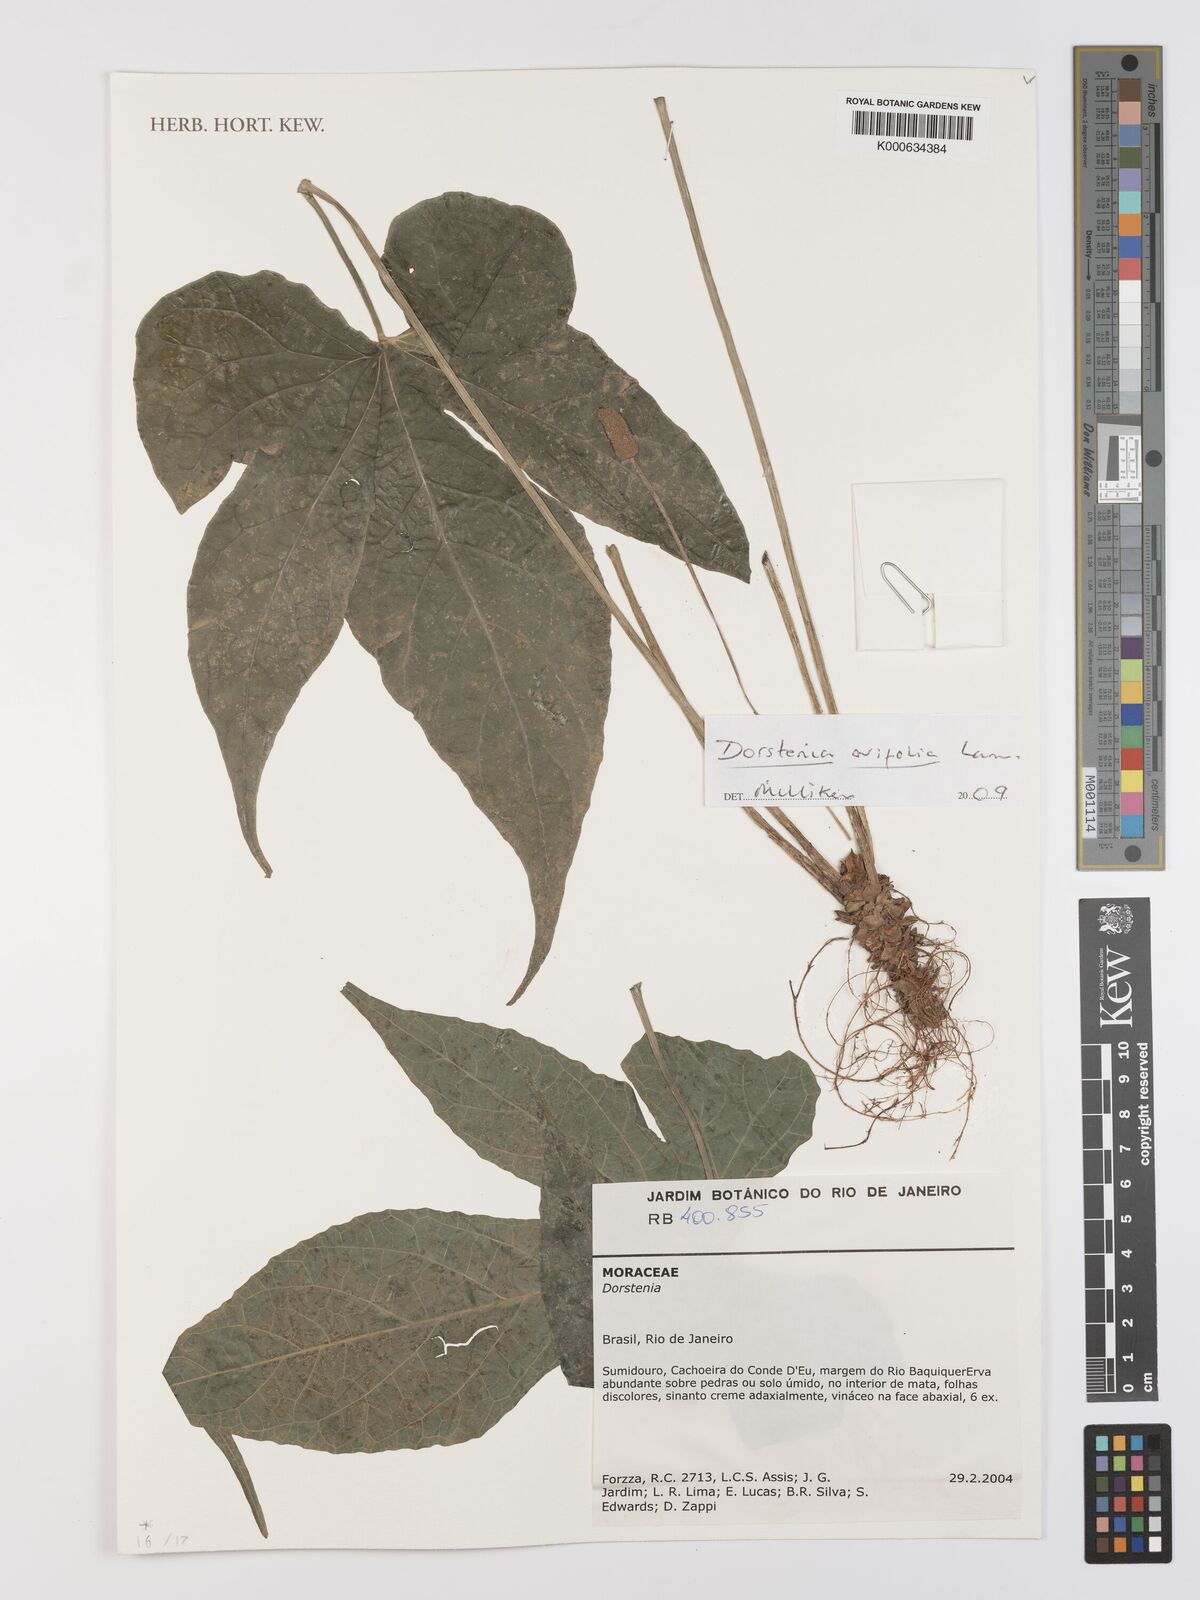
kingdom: Plantae
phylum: Tracheophyta
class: Magnoliopsida
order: Rosales
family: Moraceae
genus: Dorstenia
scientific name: Dorstenia
